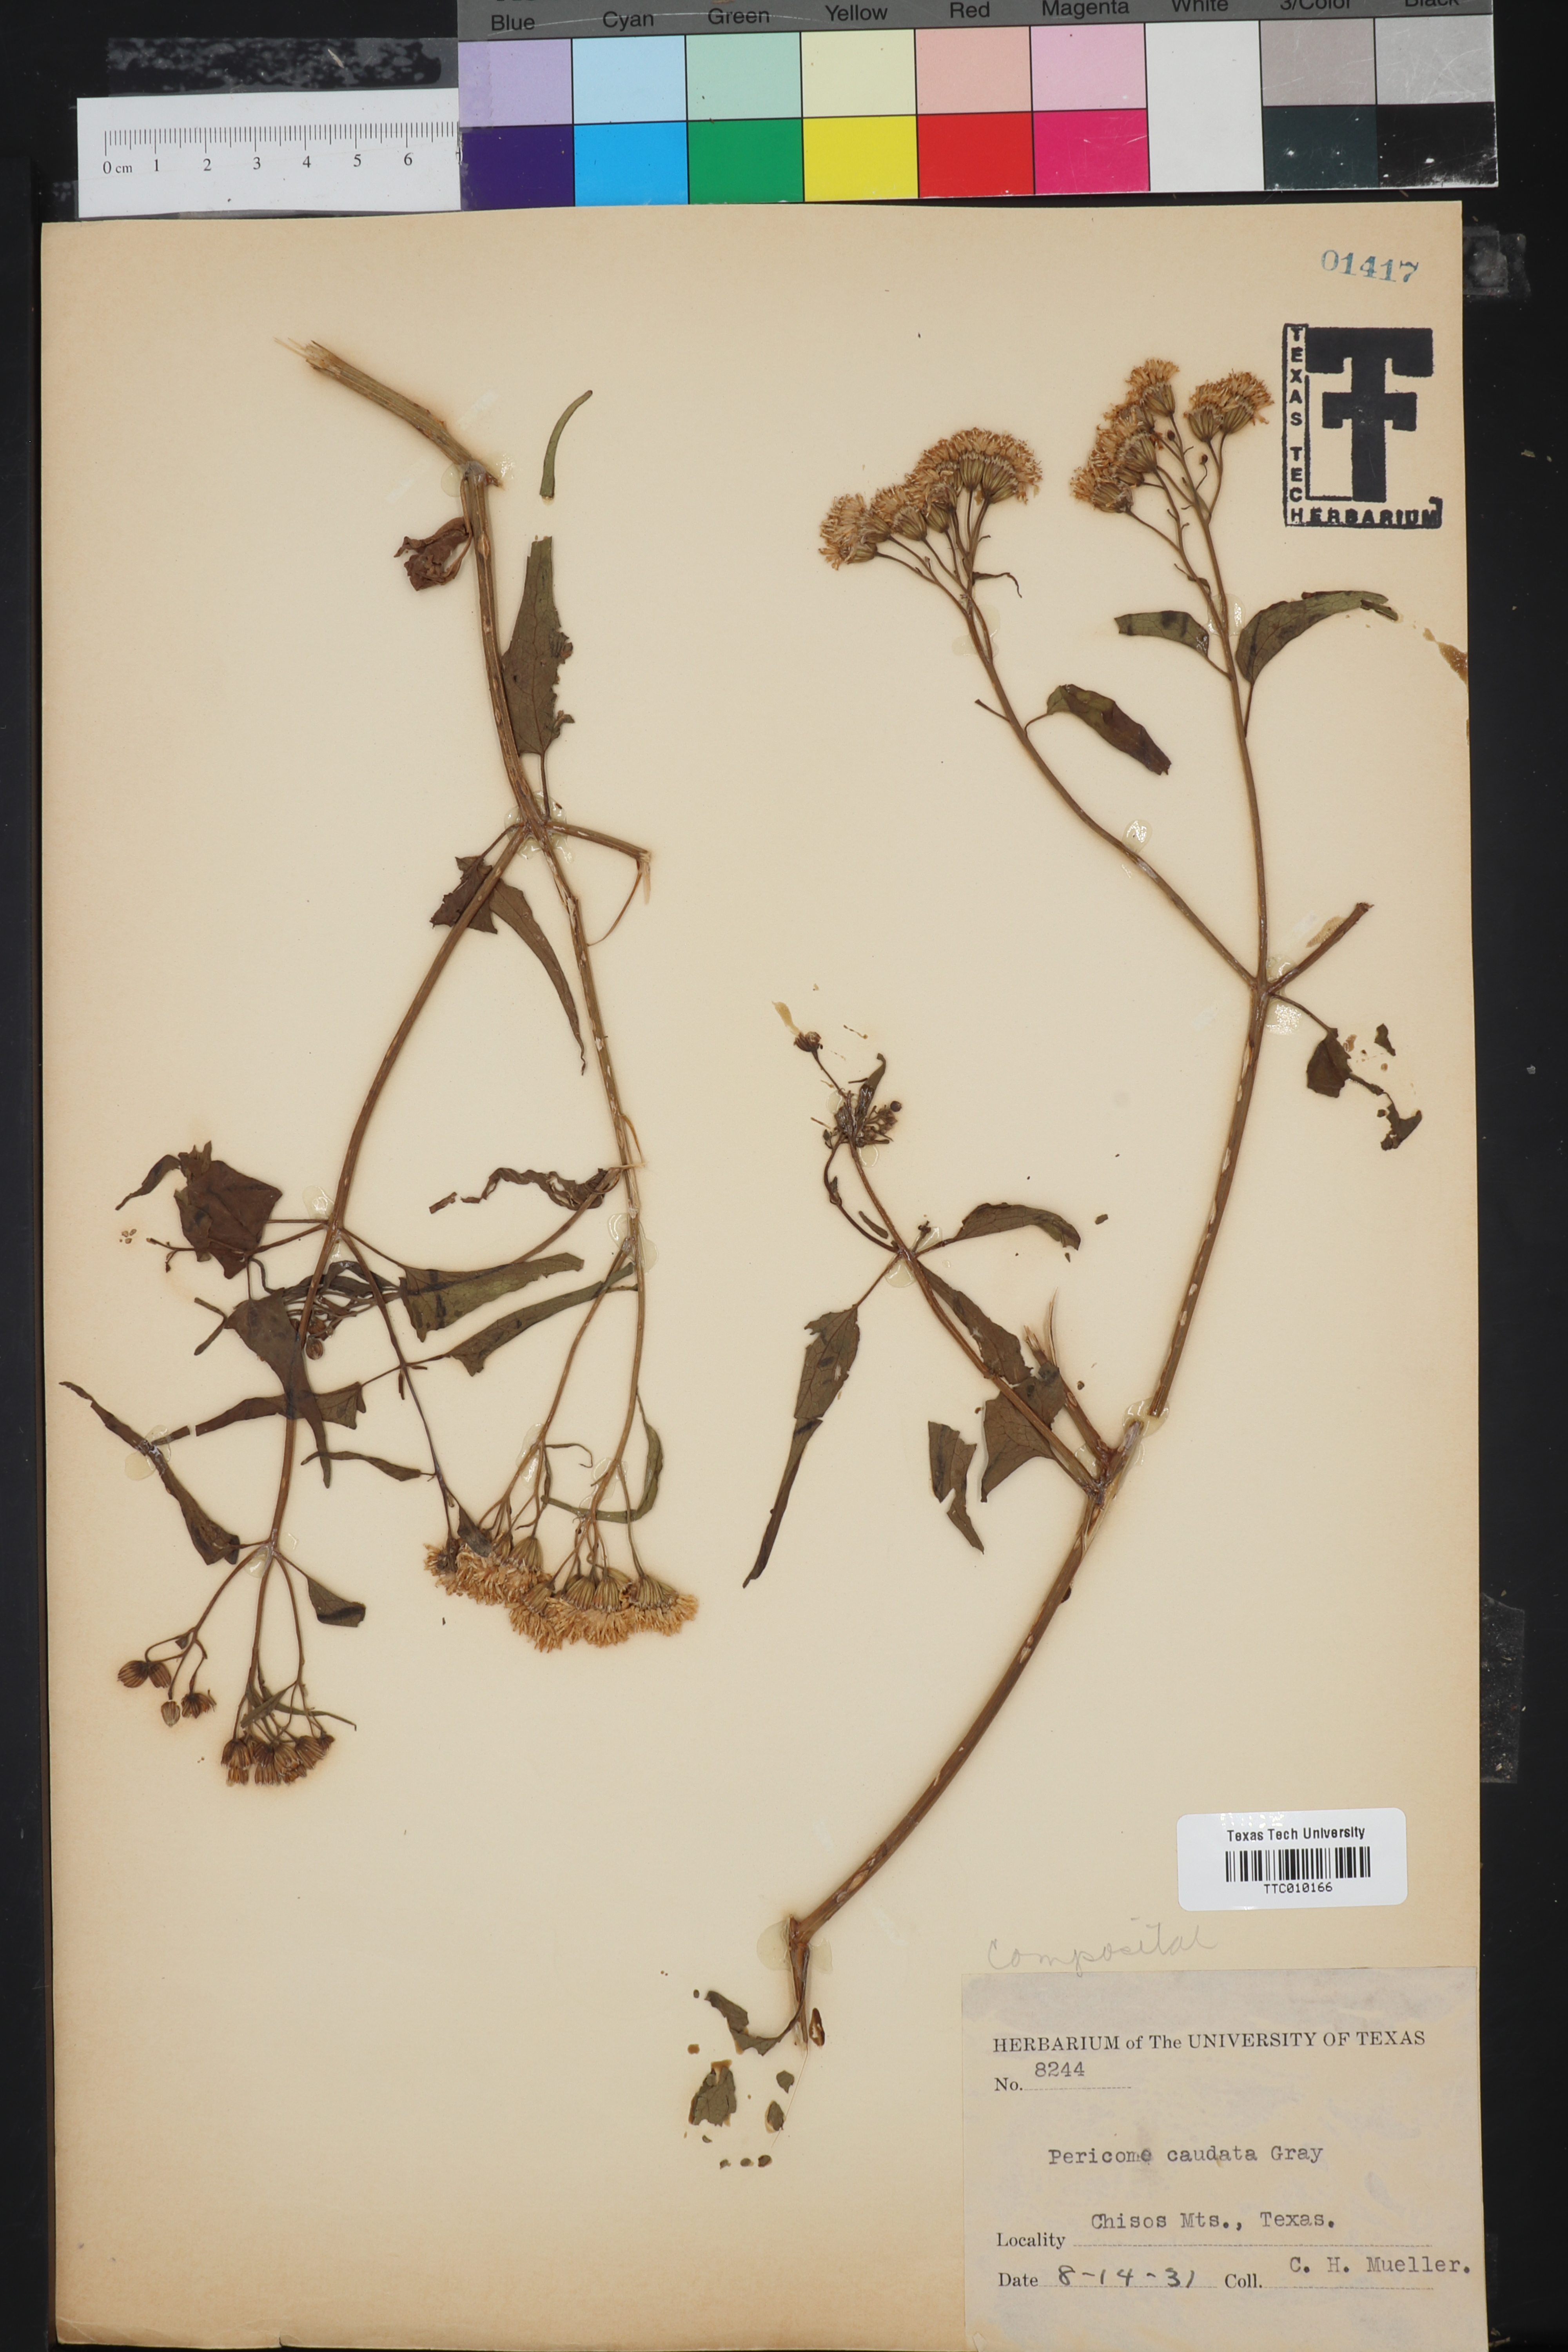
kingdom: Plantae
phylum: Tracheophyta
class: Magnoliopsida
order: Asterales
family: Asteraceae
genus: Pericome
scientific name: Pericome caudata
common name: Taperleaf
